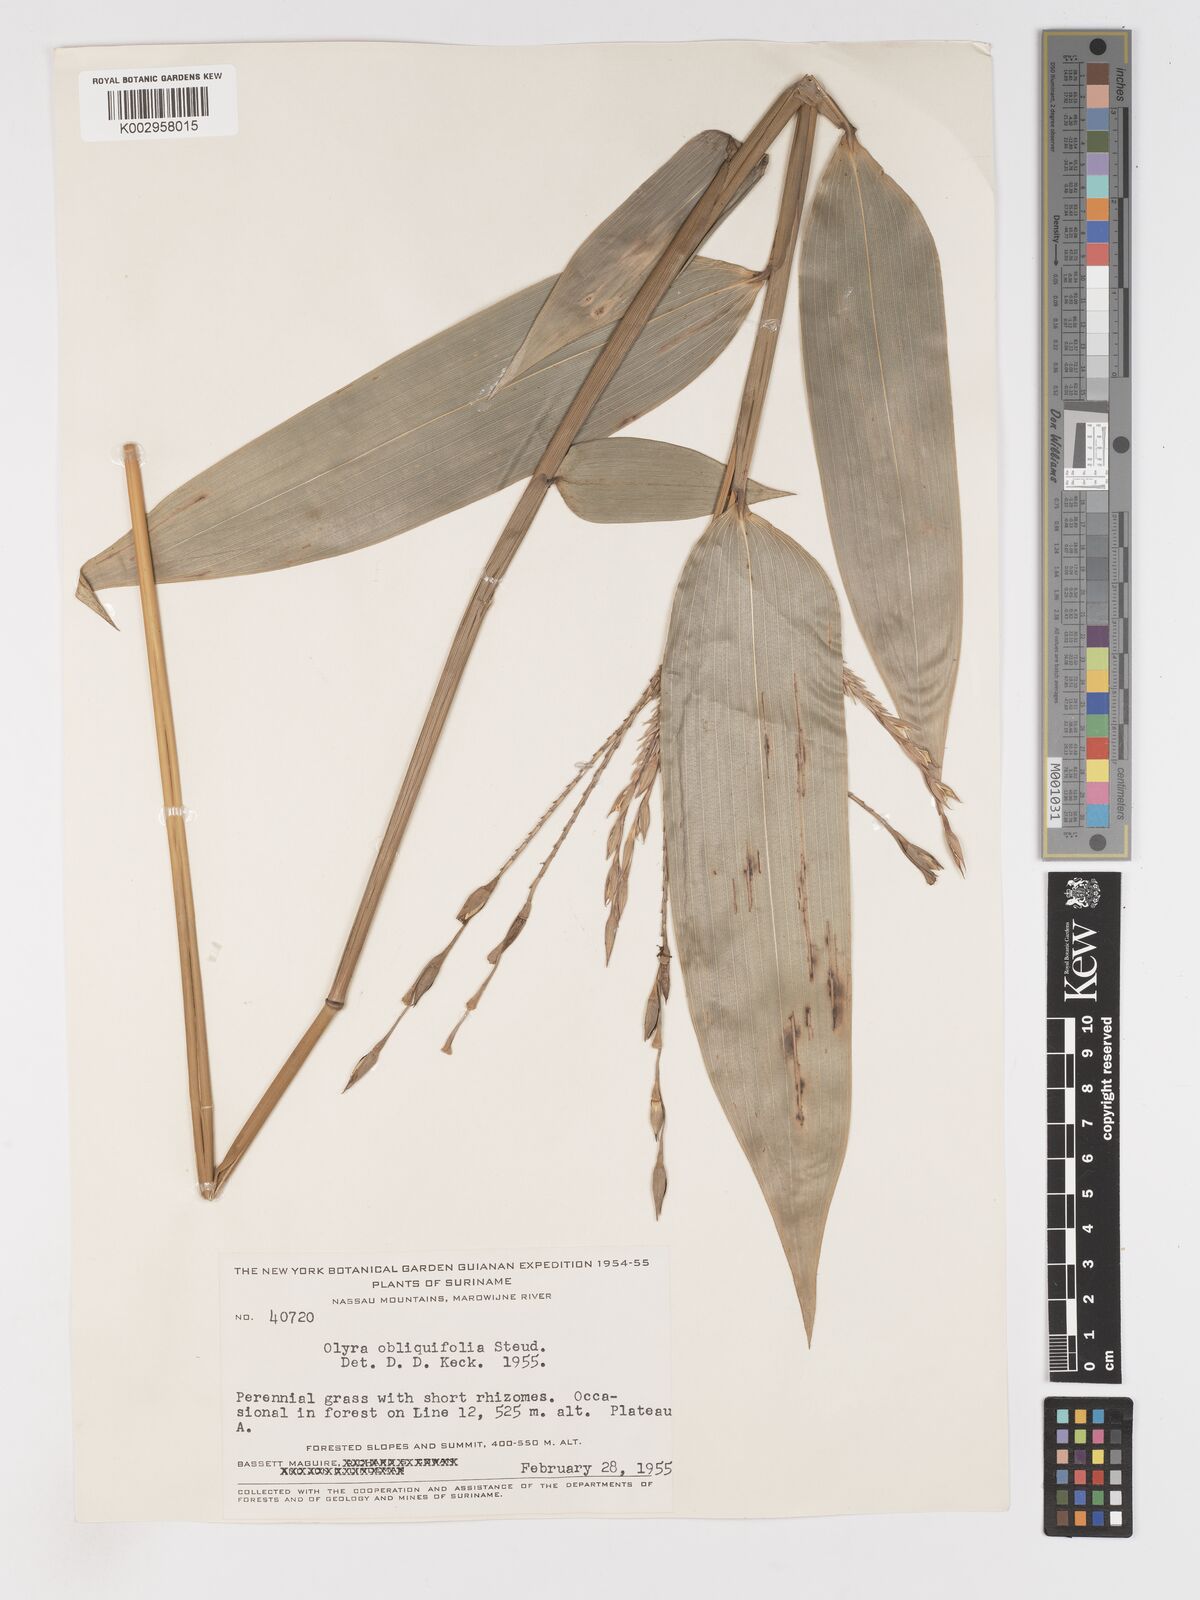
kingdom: Plantae
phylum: Tracheophyta
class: Liliopsida
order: Poales
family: Poaceae
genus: Olyra
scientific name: Olyra obliquifolia
